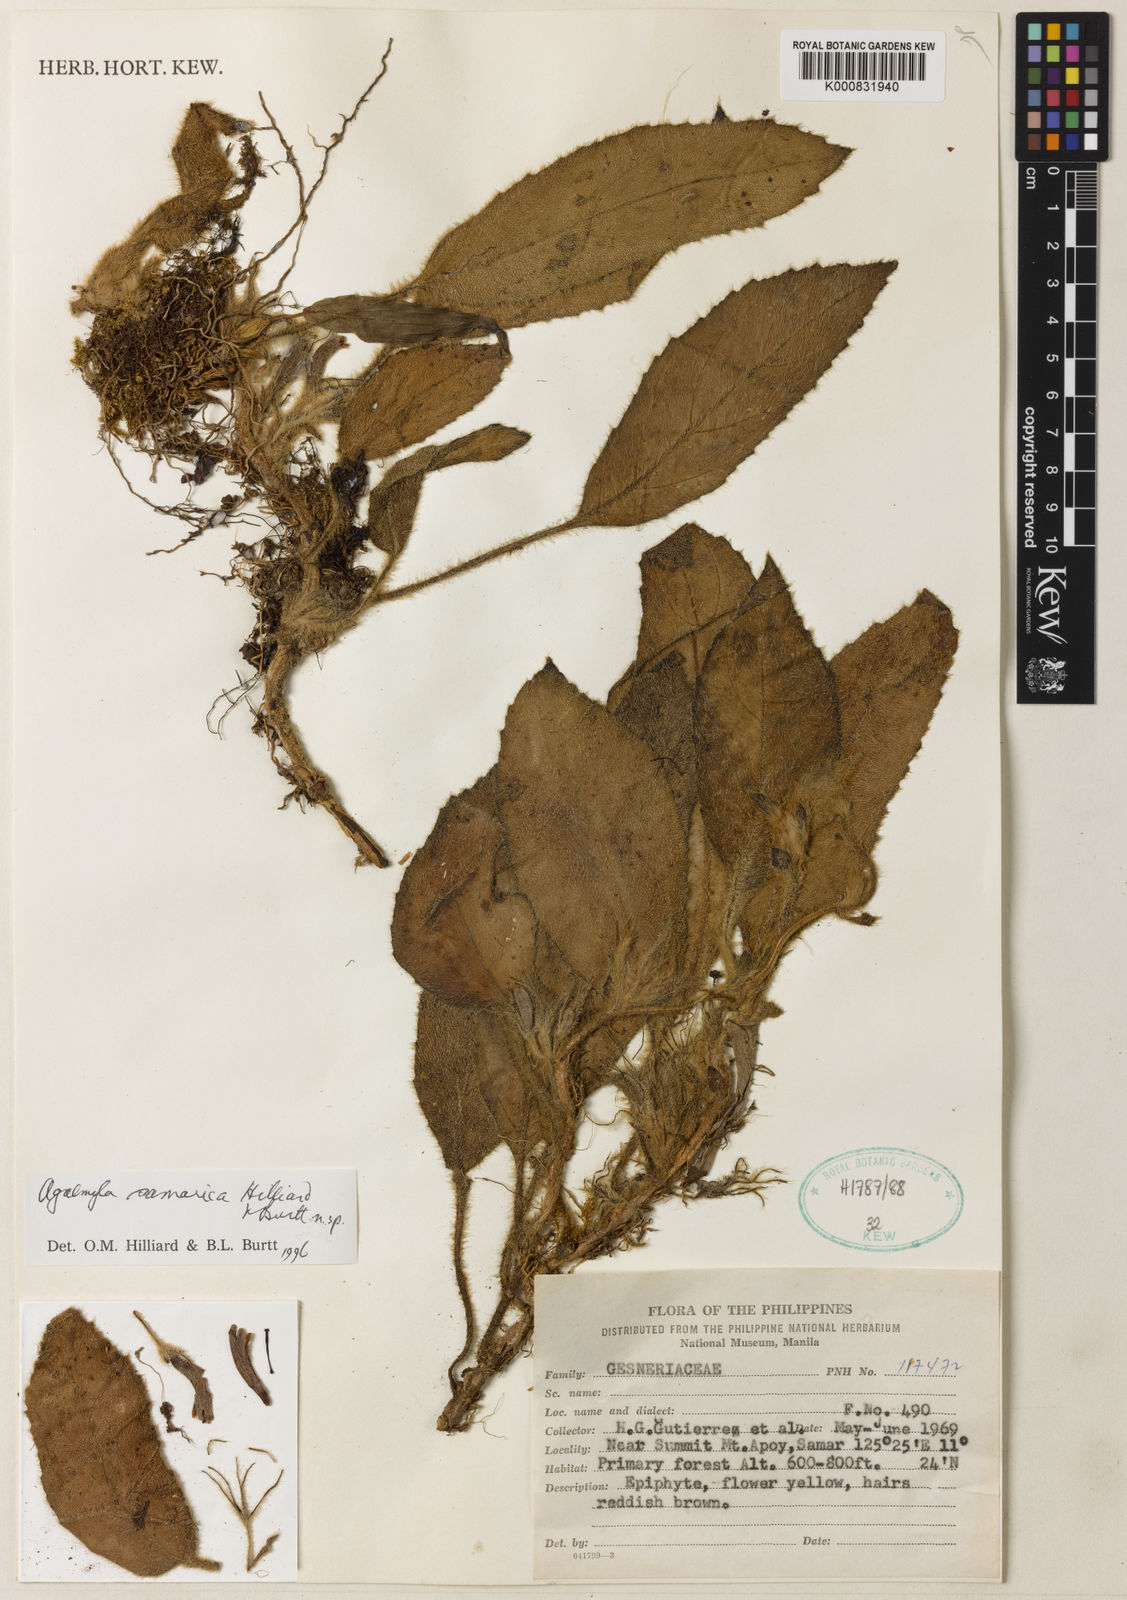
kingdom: Plantae
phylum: Tracheophyta
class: Magnoliopsida
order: Lamiales
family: Gesneriaceae
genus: Agalmyla
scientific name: Agalmyla samarica
